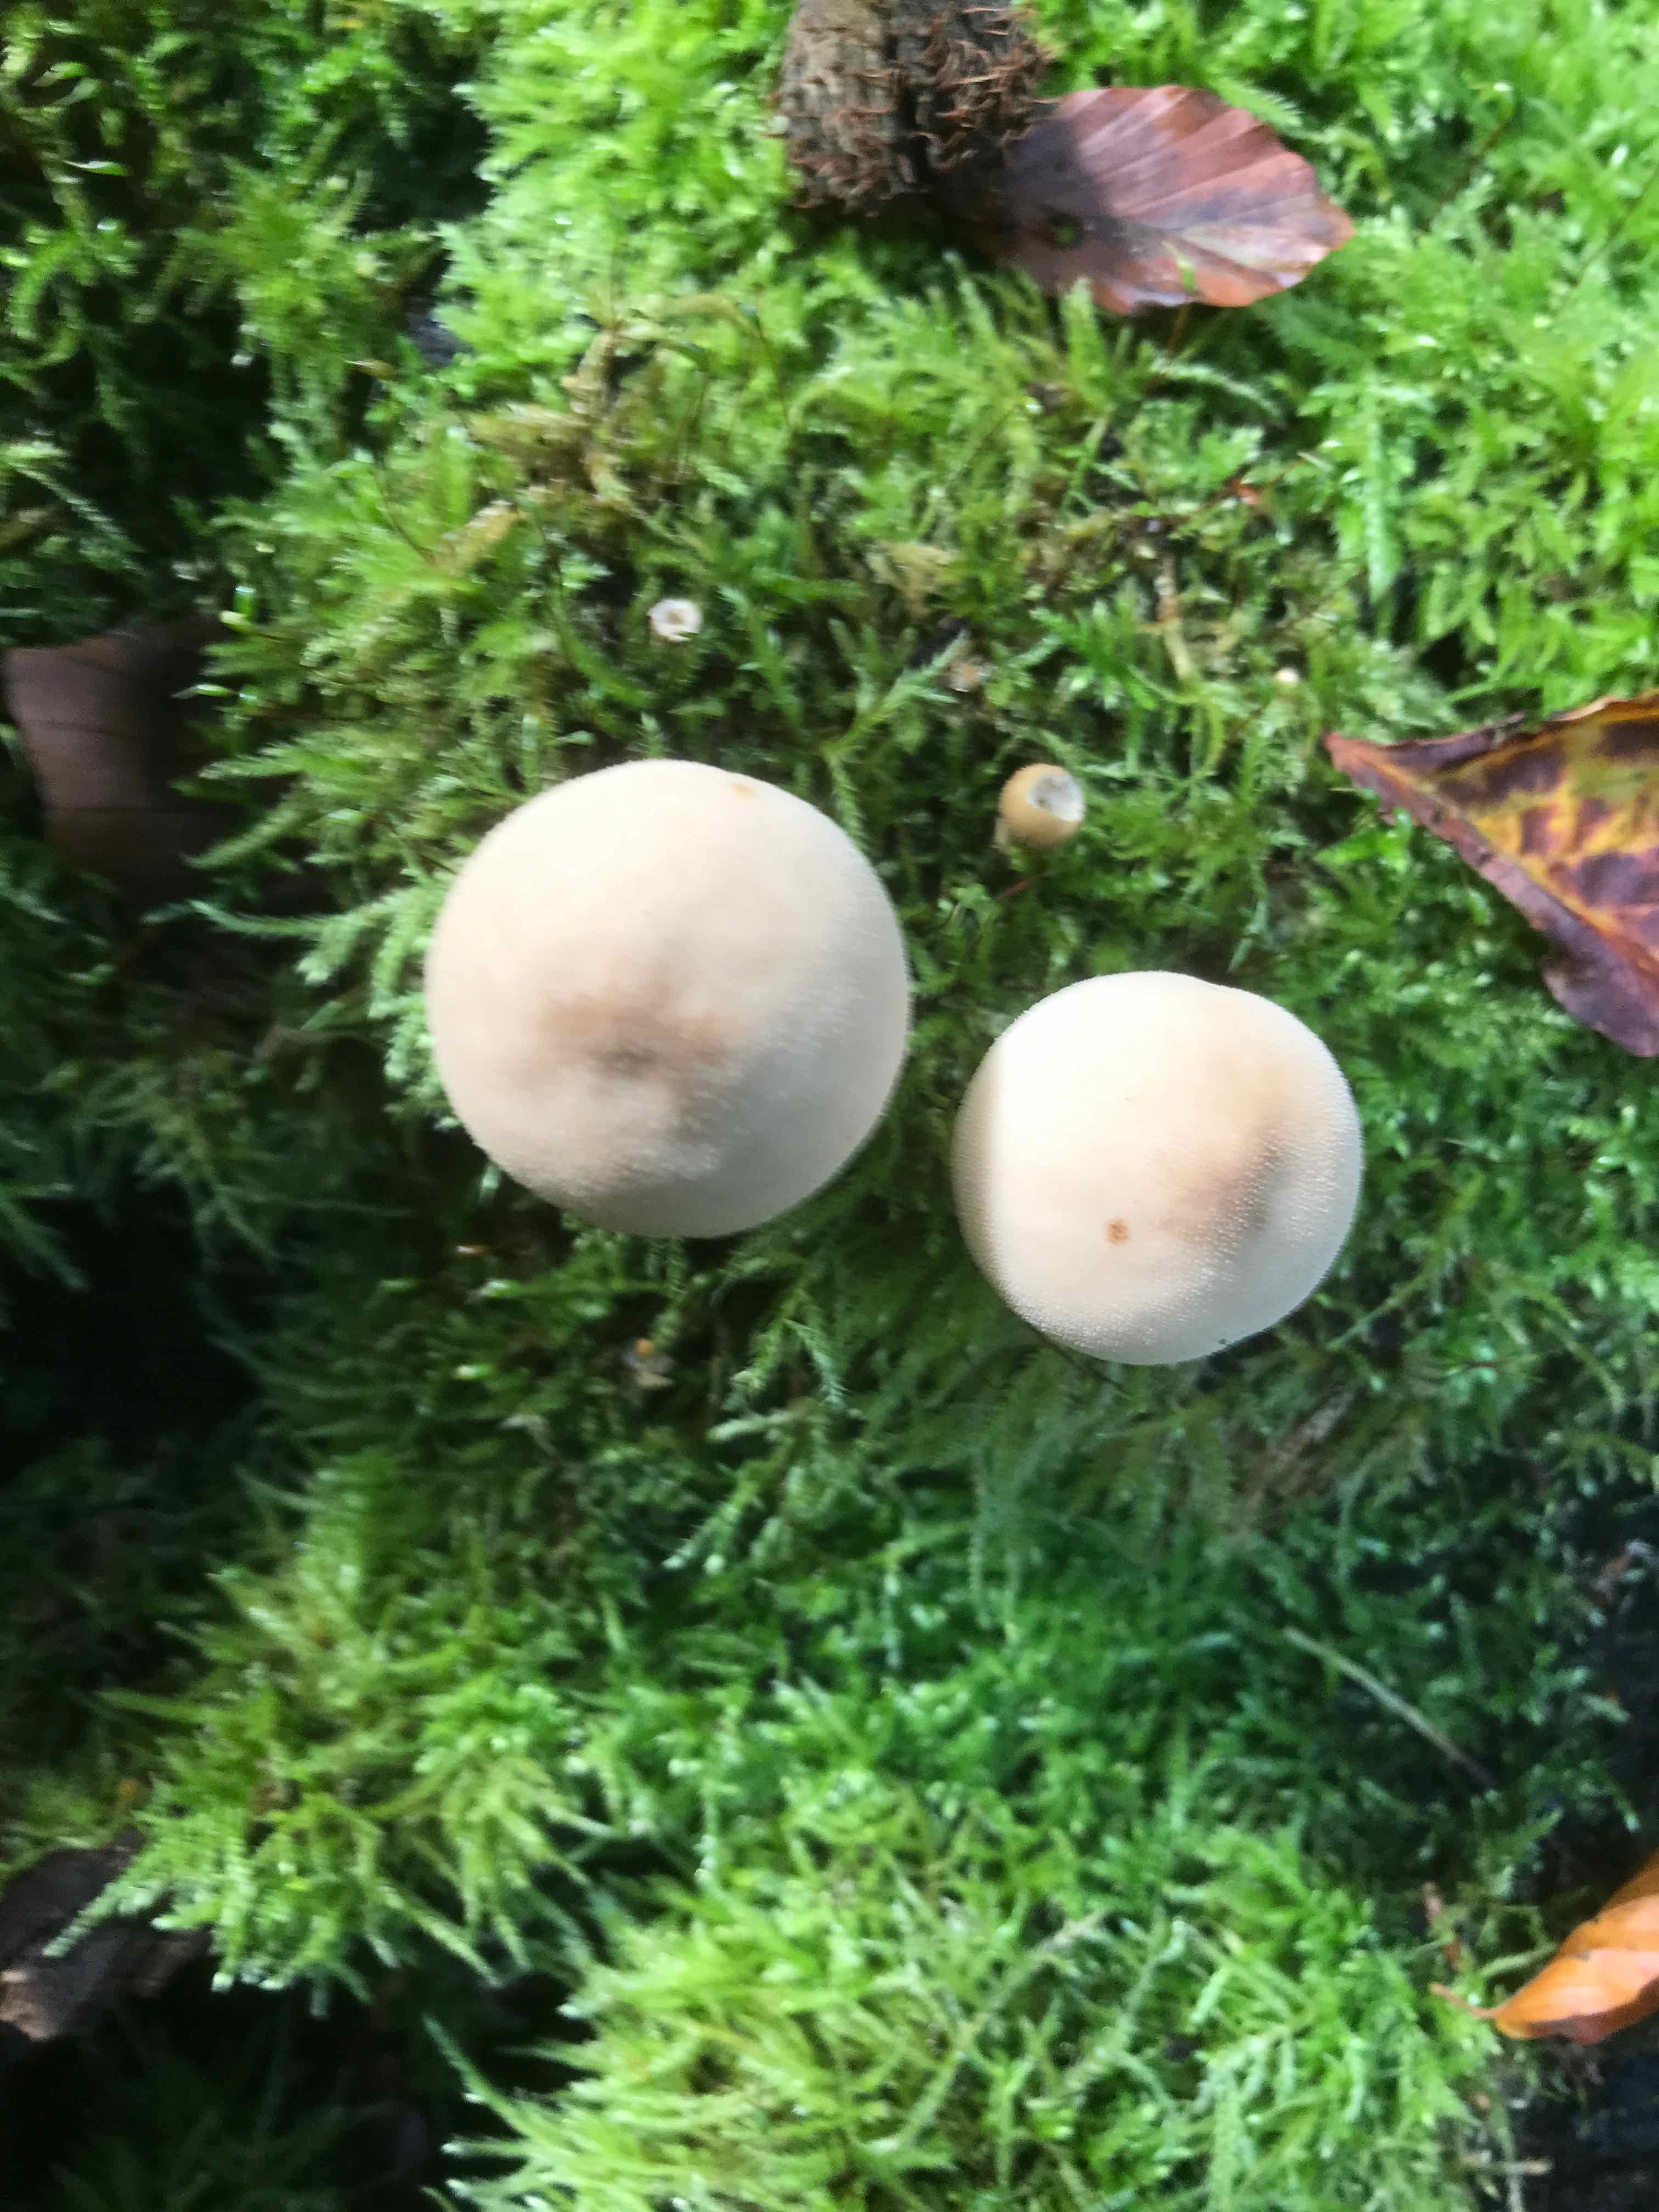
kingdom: Fungi
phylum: Basidiomycota
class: Agaricomycetes
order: Agaricales
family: Lycoperdaceae
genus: Apioperdon
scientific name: Apioperdon pyriforme
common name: pære-støvbold
